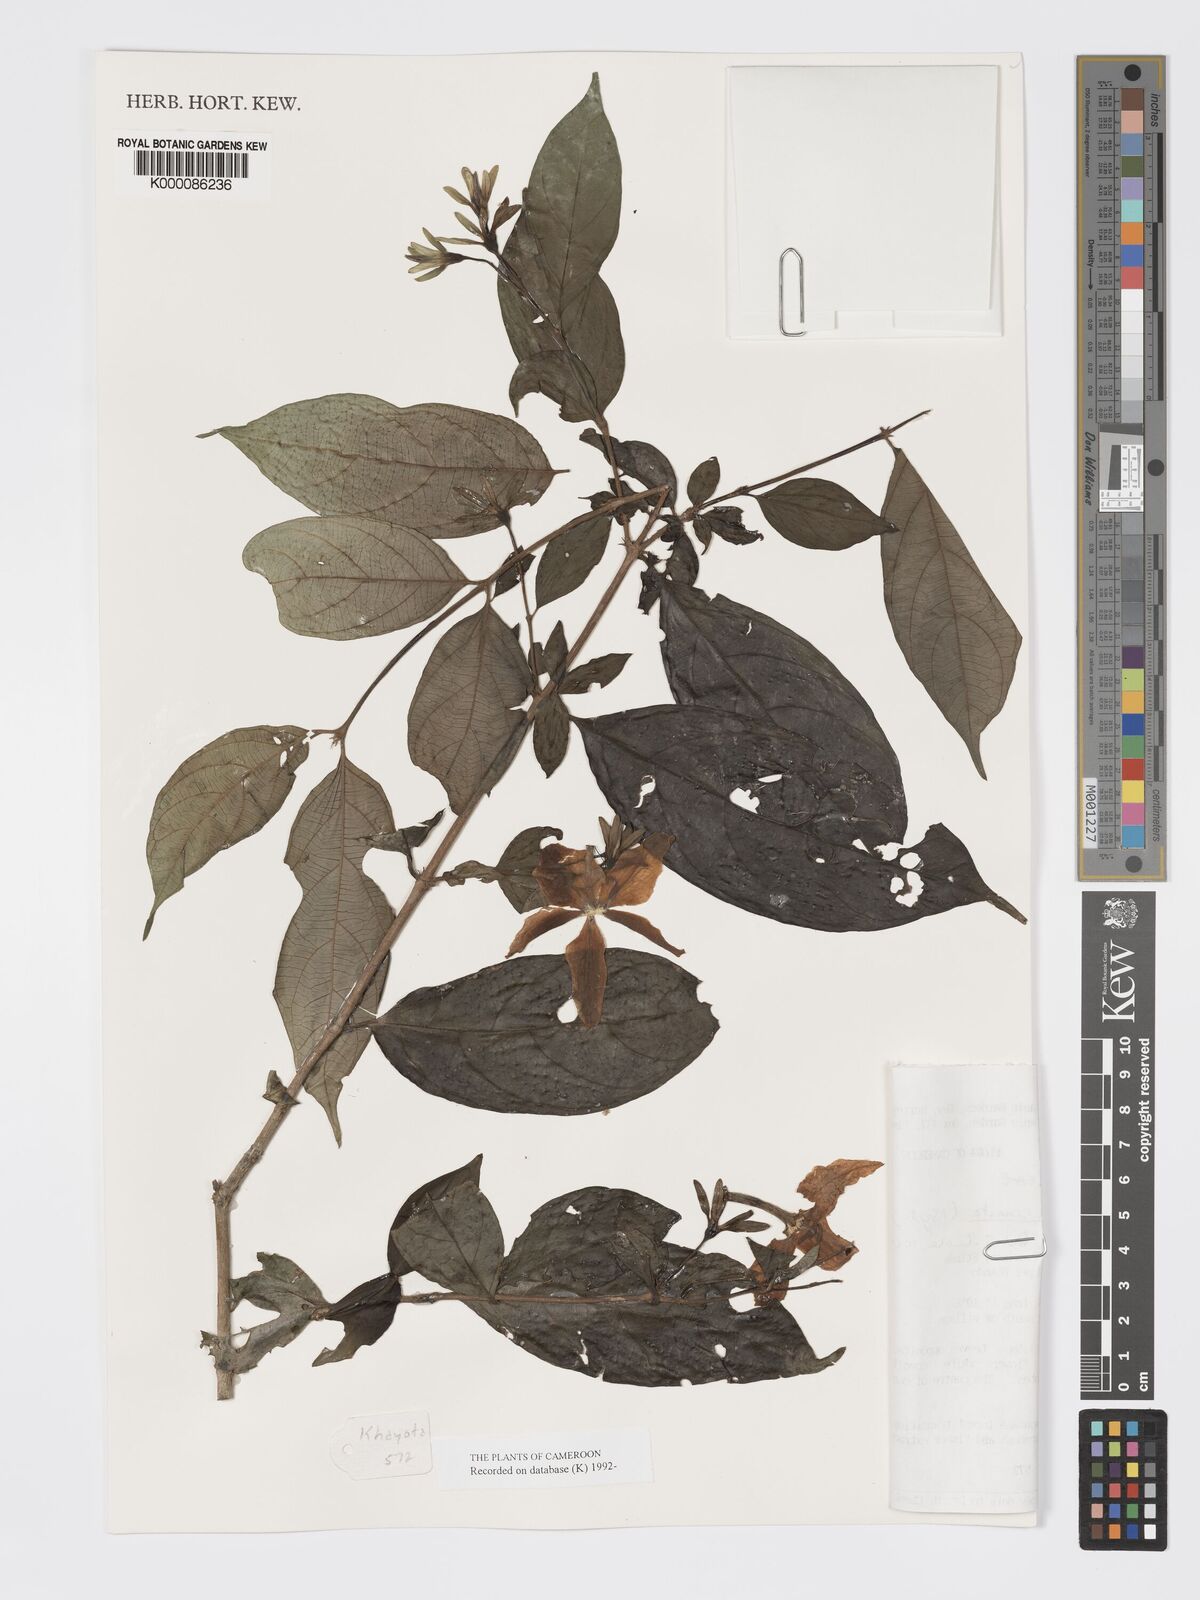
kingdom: Plantae
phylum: Tracheophyta
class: Magnoliopsida
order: Gentianales
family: Rubiaceae
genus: Heinsia
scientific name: Heinsia crinita
